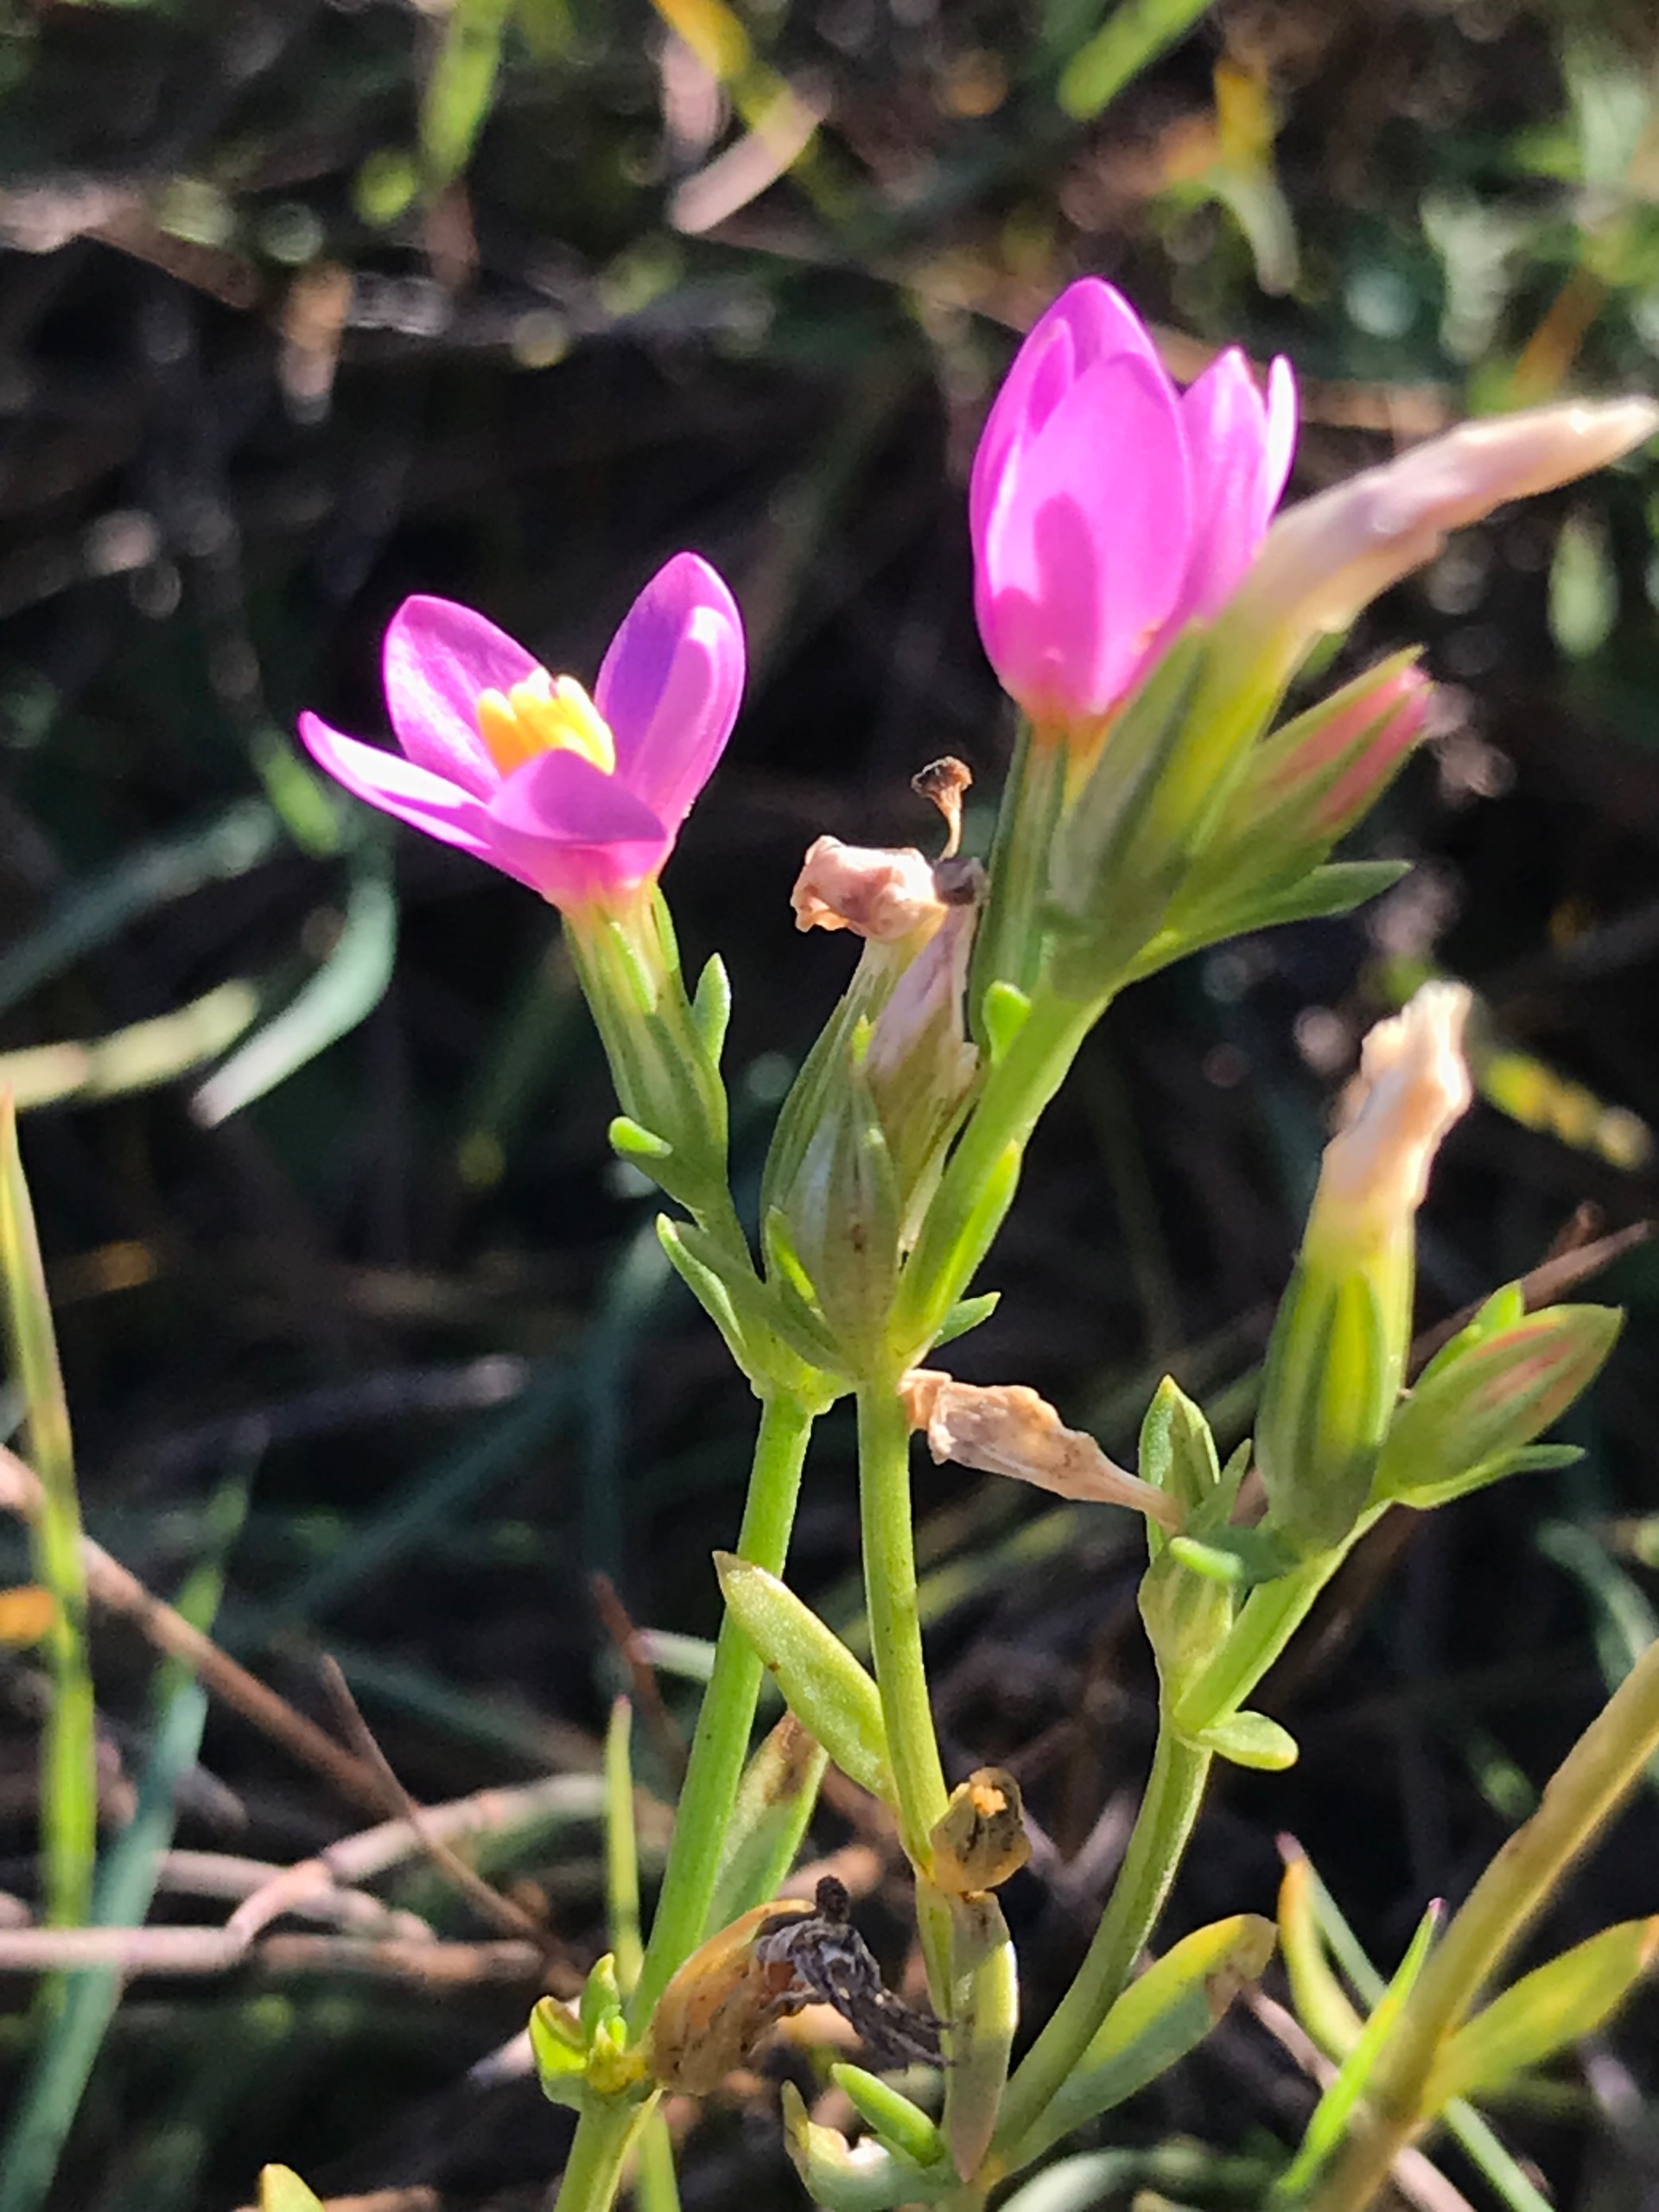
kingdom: Plantae
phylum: Tracheophyta
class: Magnoliopsida
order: Gentianales
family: Gentianaceae
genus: Centaurium
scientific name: Centaurium littorale
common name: Strand-tusindgylden
